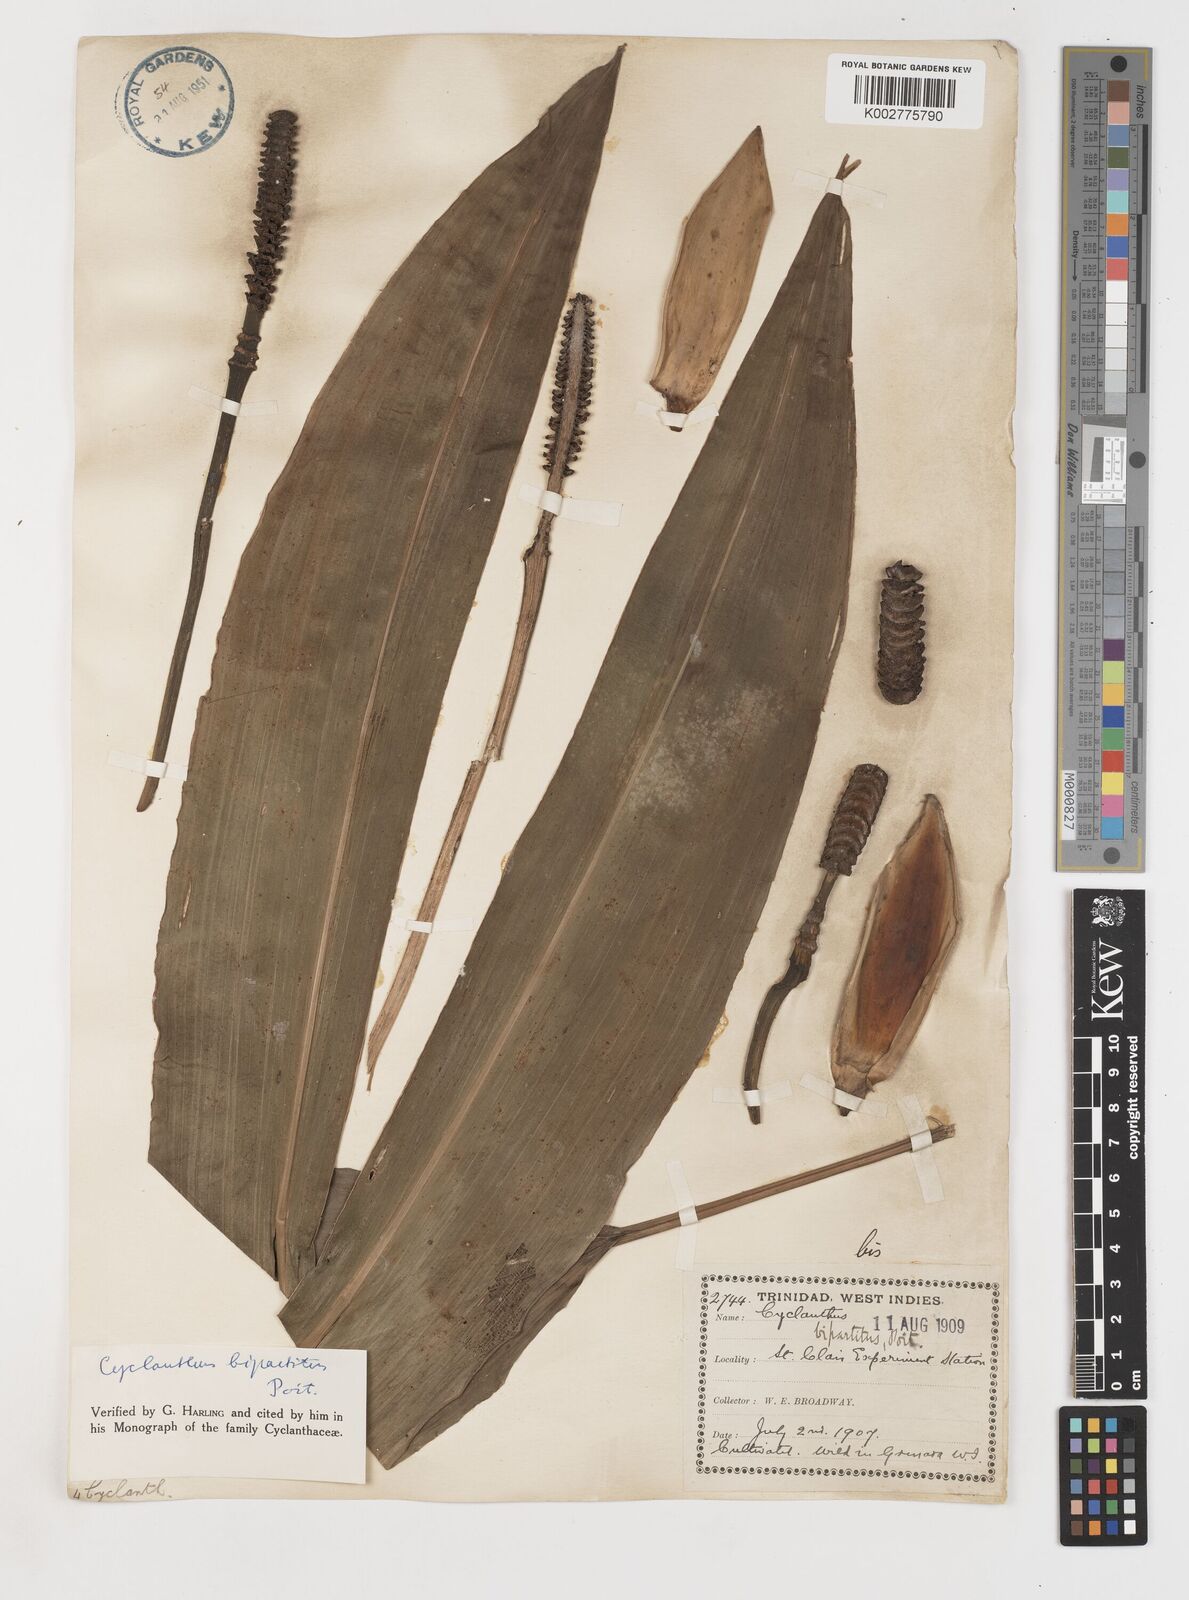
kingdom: Plantae
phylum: Tracheophyta
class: Liliopsida
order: Pandanales
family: Cyclanthaceae
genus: Cyclanthus
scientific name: Cyclanthus bipartitus
